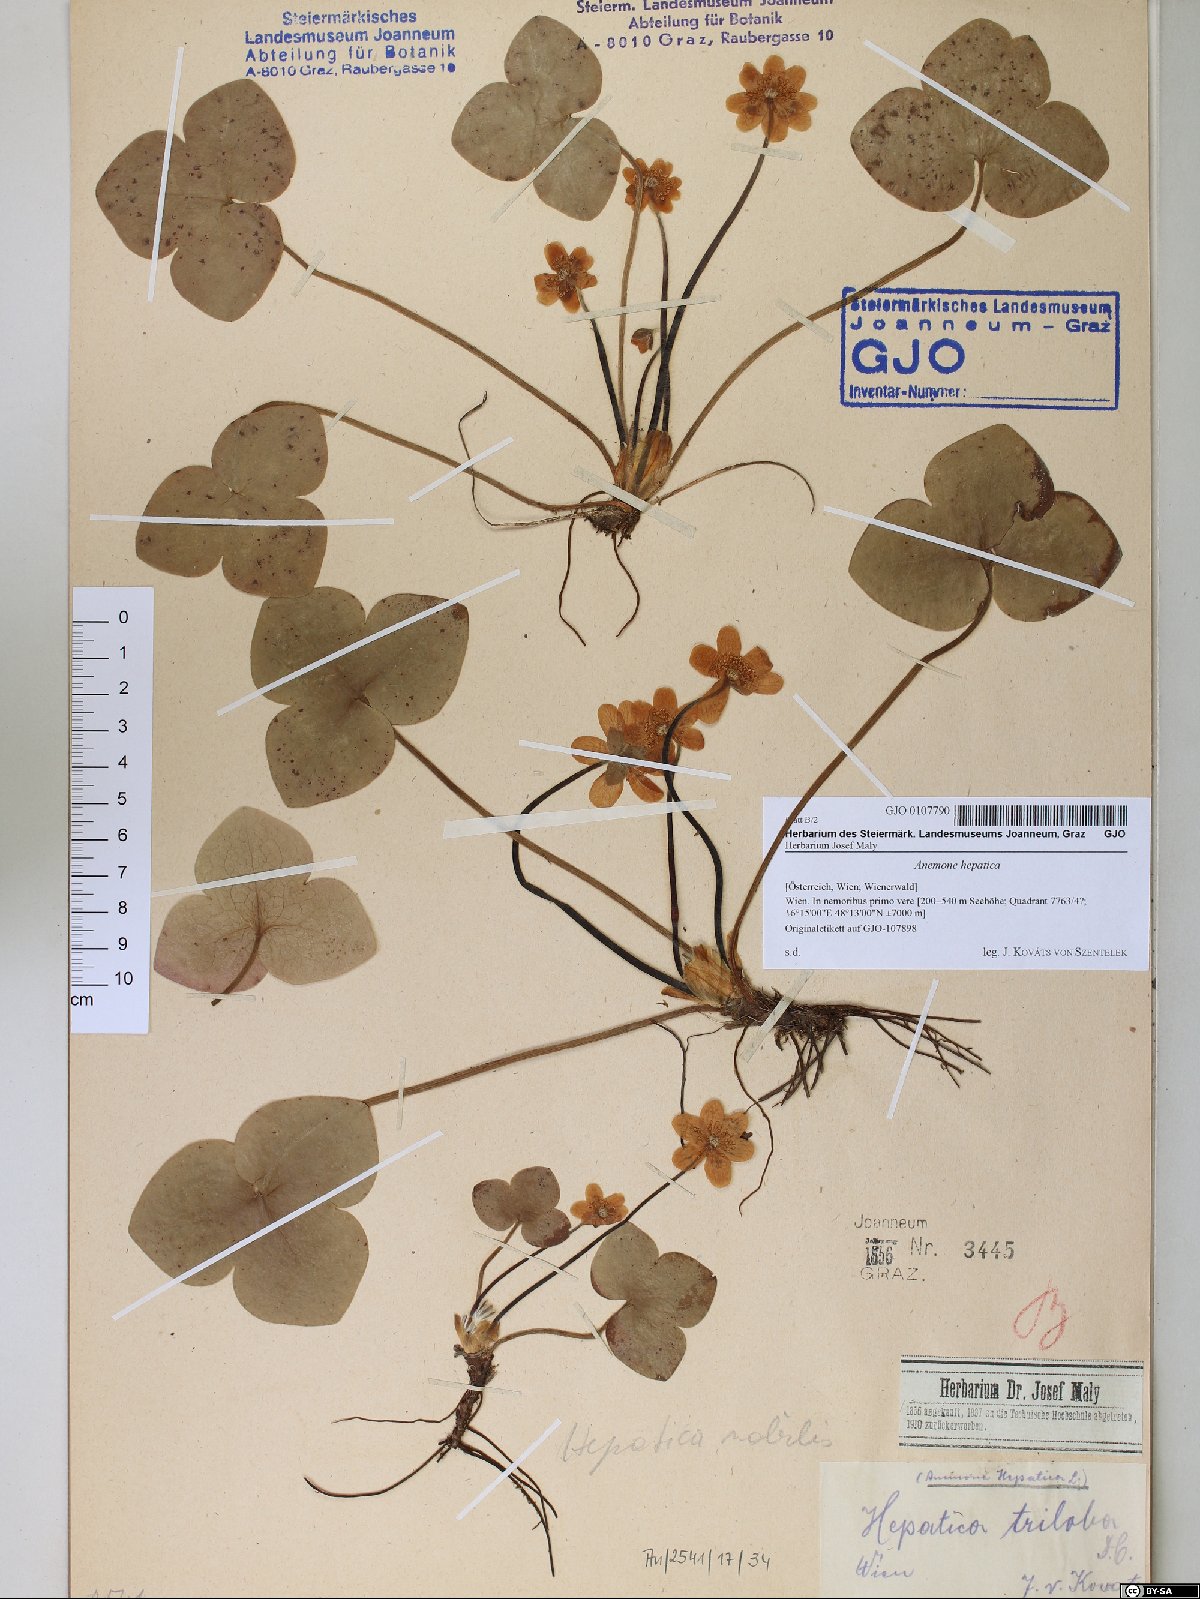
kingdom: Plantae
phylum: Tracheophyta
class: Magnoliopsida
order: Ranunculales
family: Ranunculaceae
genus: Hepatica
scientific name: Hepatica nobilis
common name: Liverleaf
